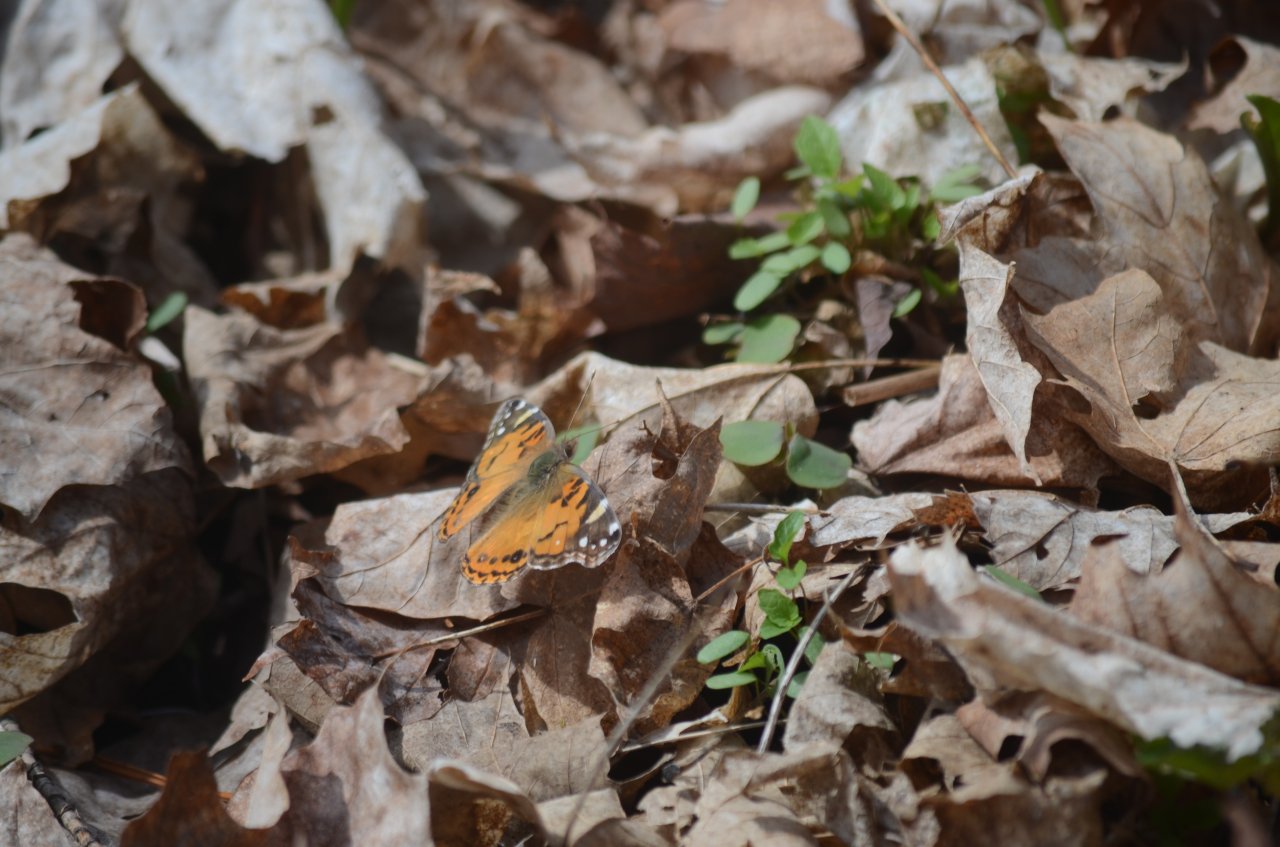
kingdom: Animalia
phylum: Arthropoda
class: Insecta
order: Lepidoptera
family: Nymphalidae
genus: Vanessa
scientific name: Vanessa virginiensis
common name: American Lady
